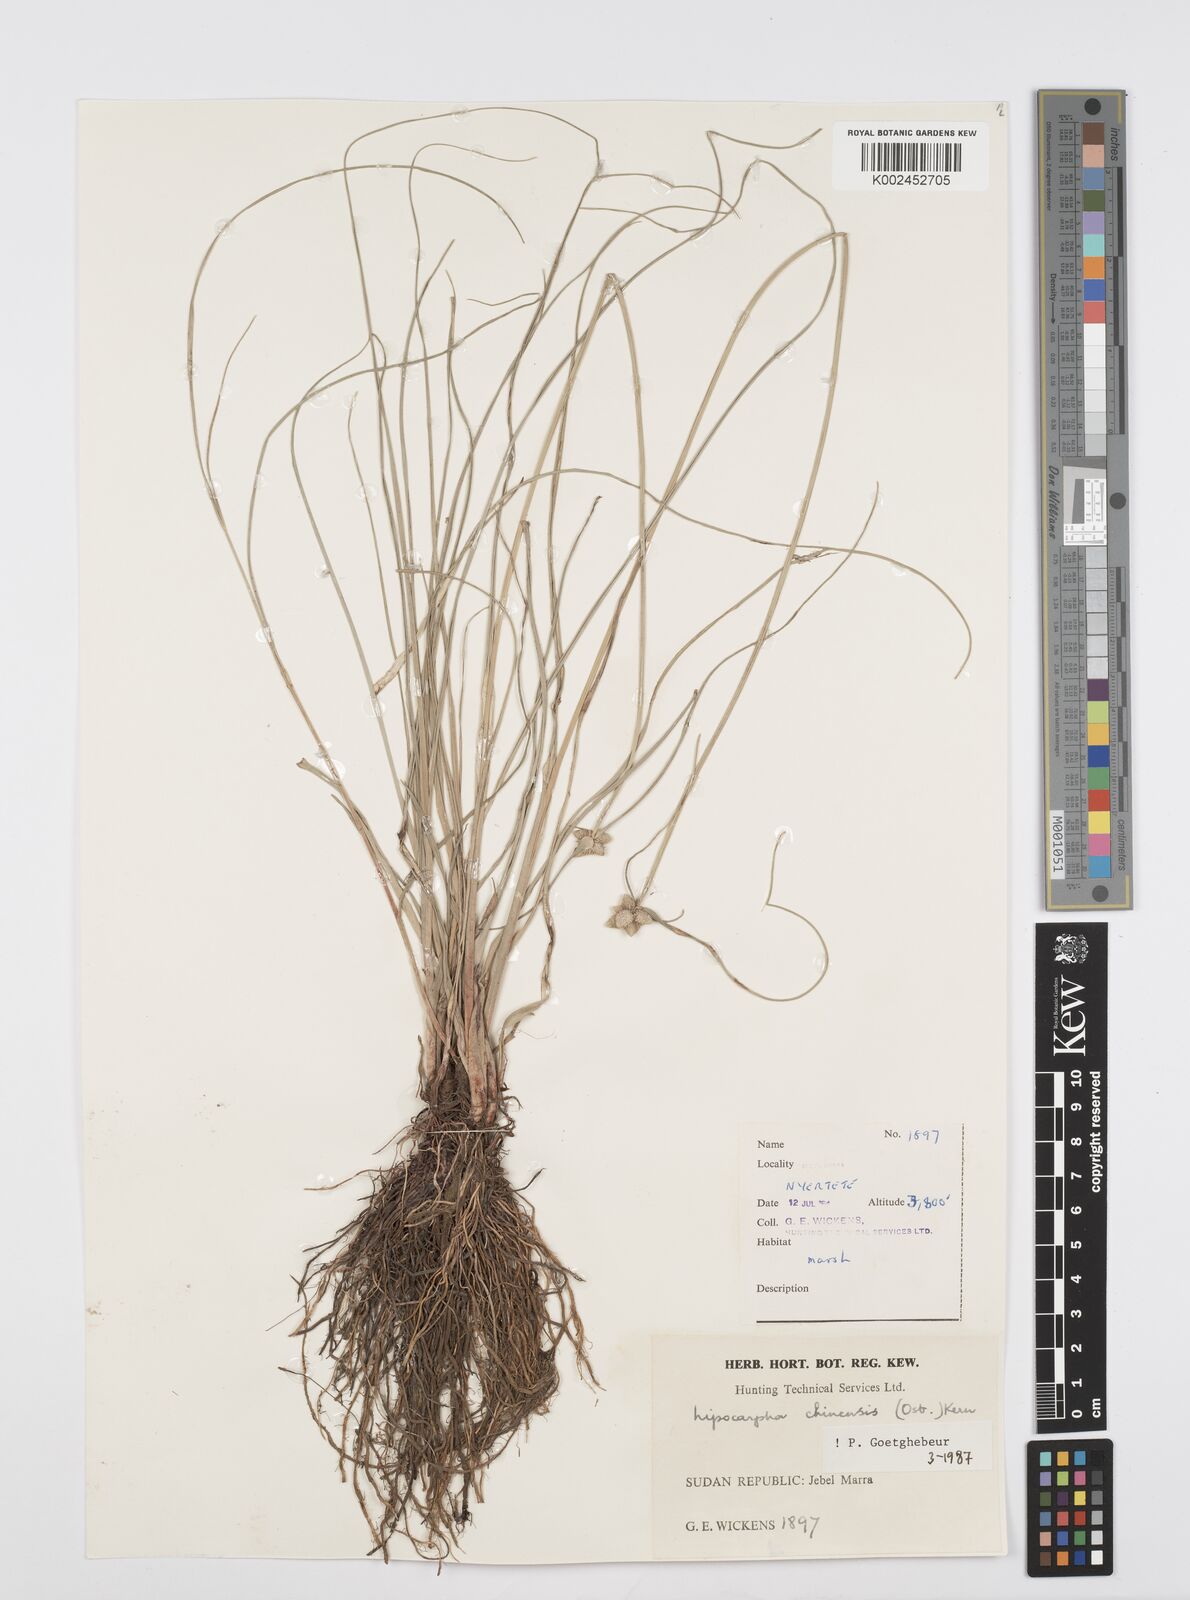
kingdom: Plantae
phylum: Tracheophyta
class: Liliopsida
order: Poales
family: Cyperaceae
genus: Cyperus
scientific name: Cyperus albescens
